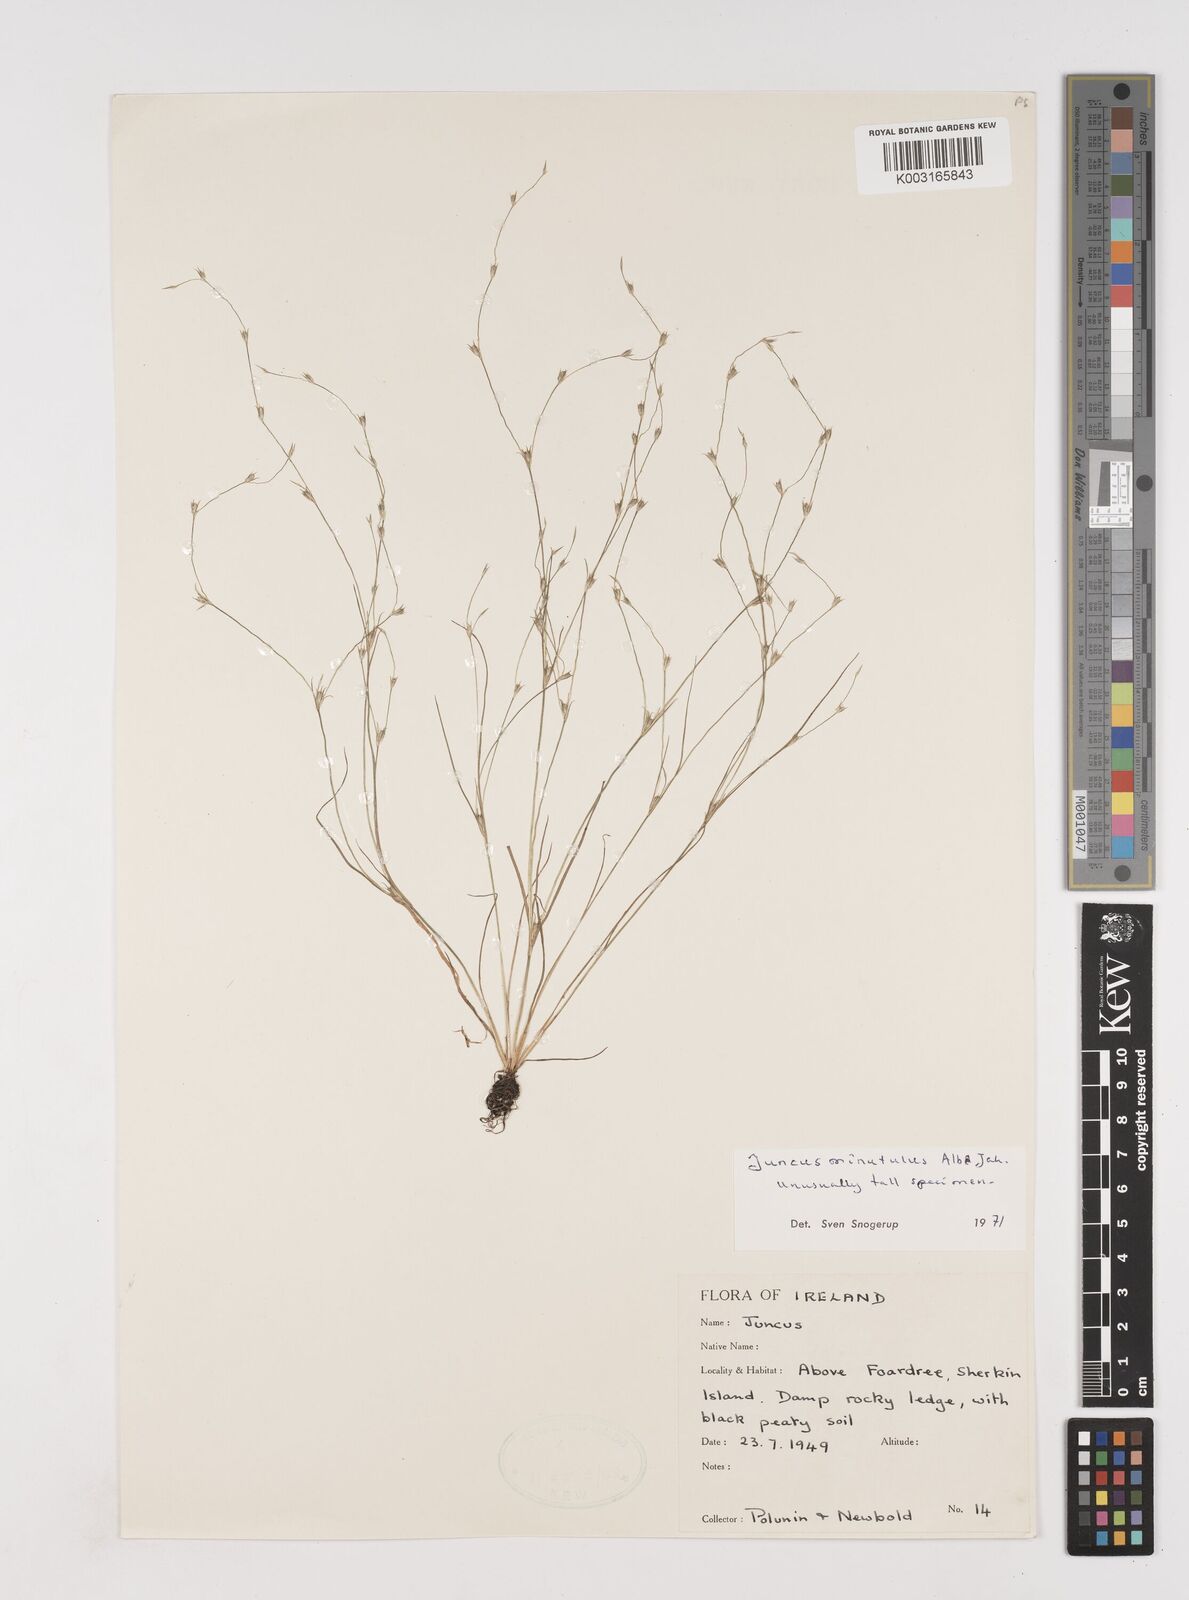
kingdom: Plantae
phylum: Tracheophyta
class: Liliopsida
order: Poales
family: Juncaceae
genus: Juncus
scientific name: Juncus bufonius
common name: Toad rush
